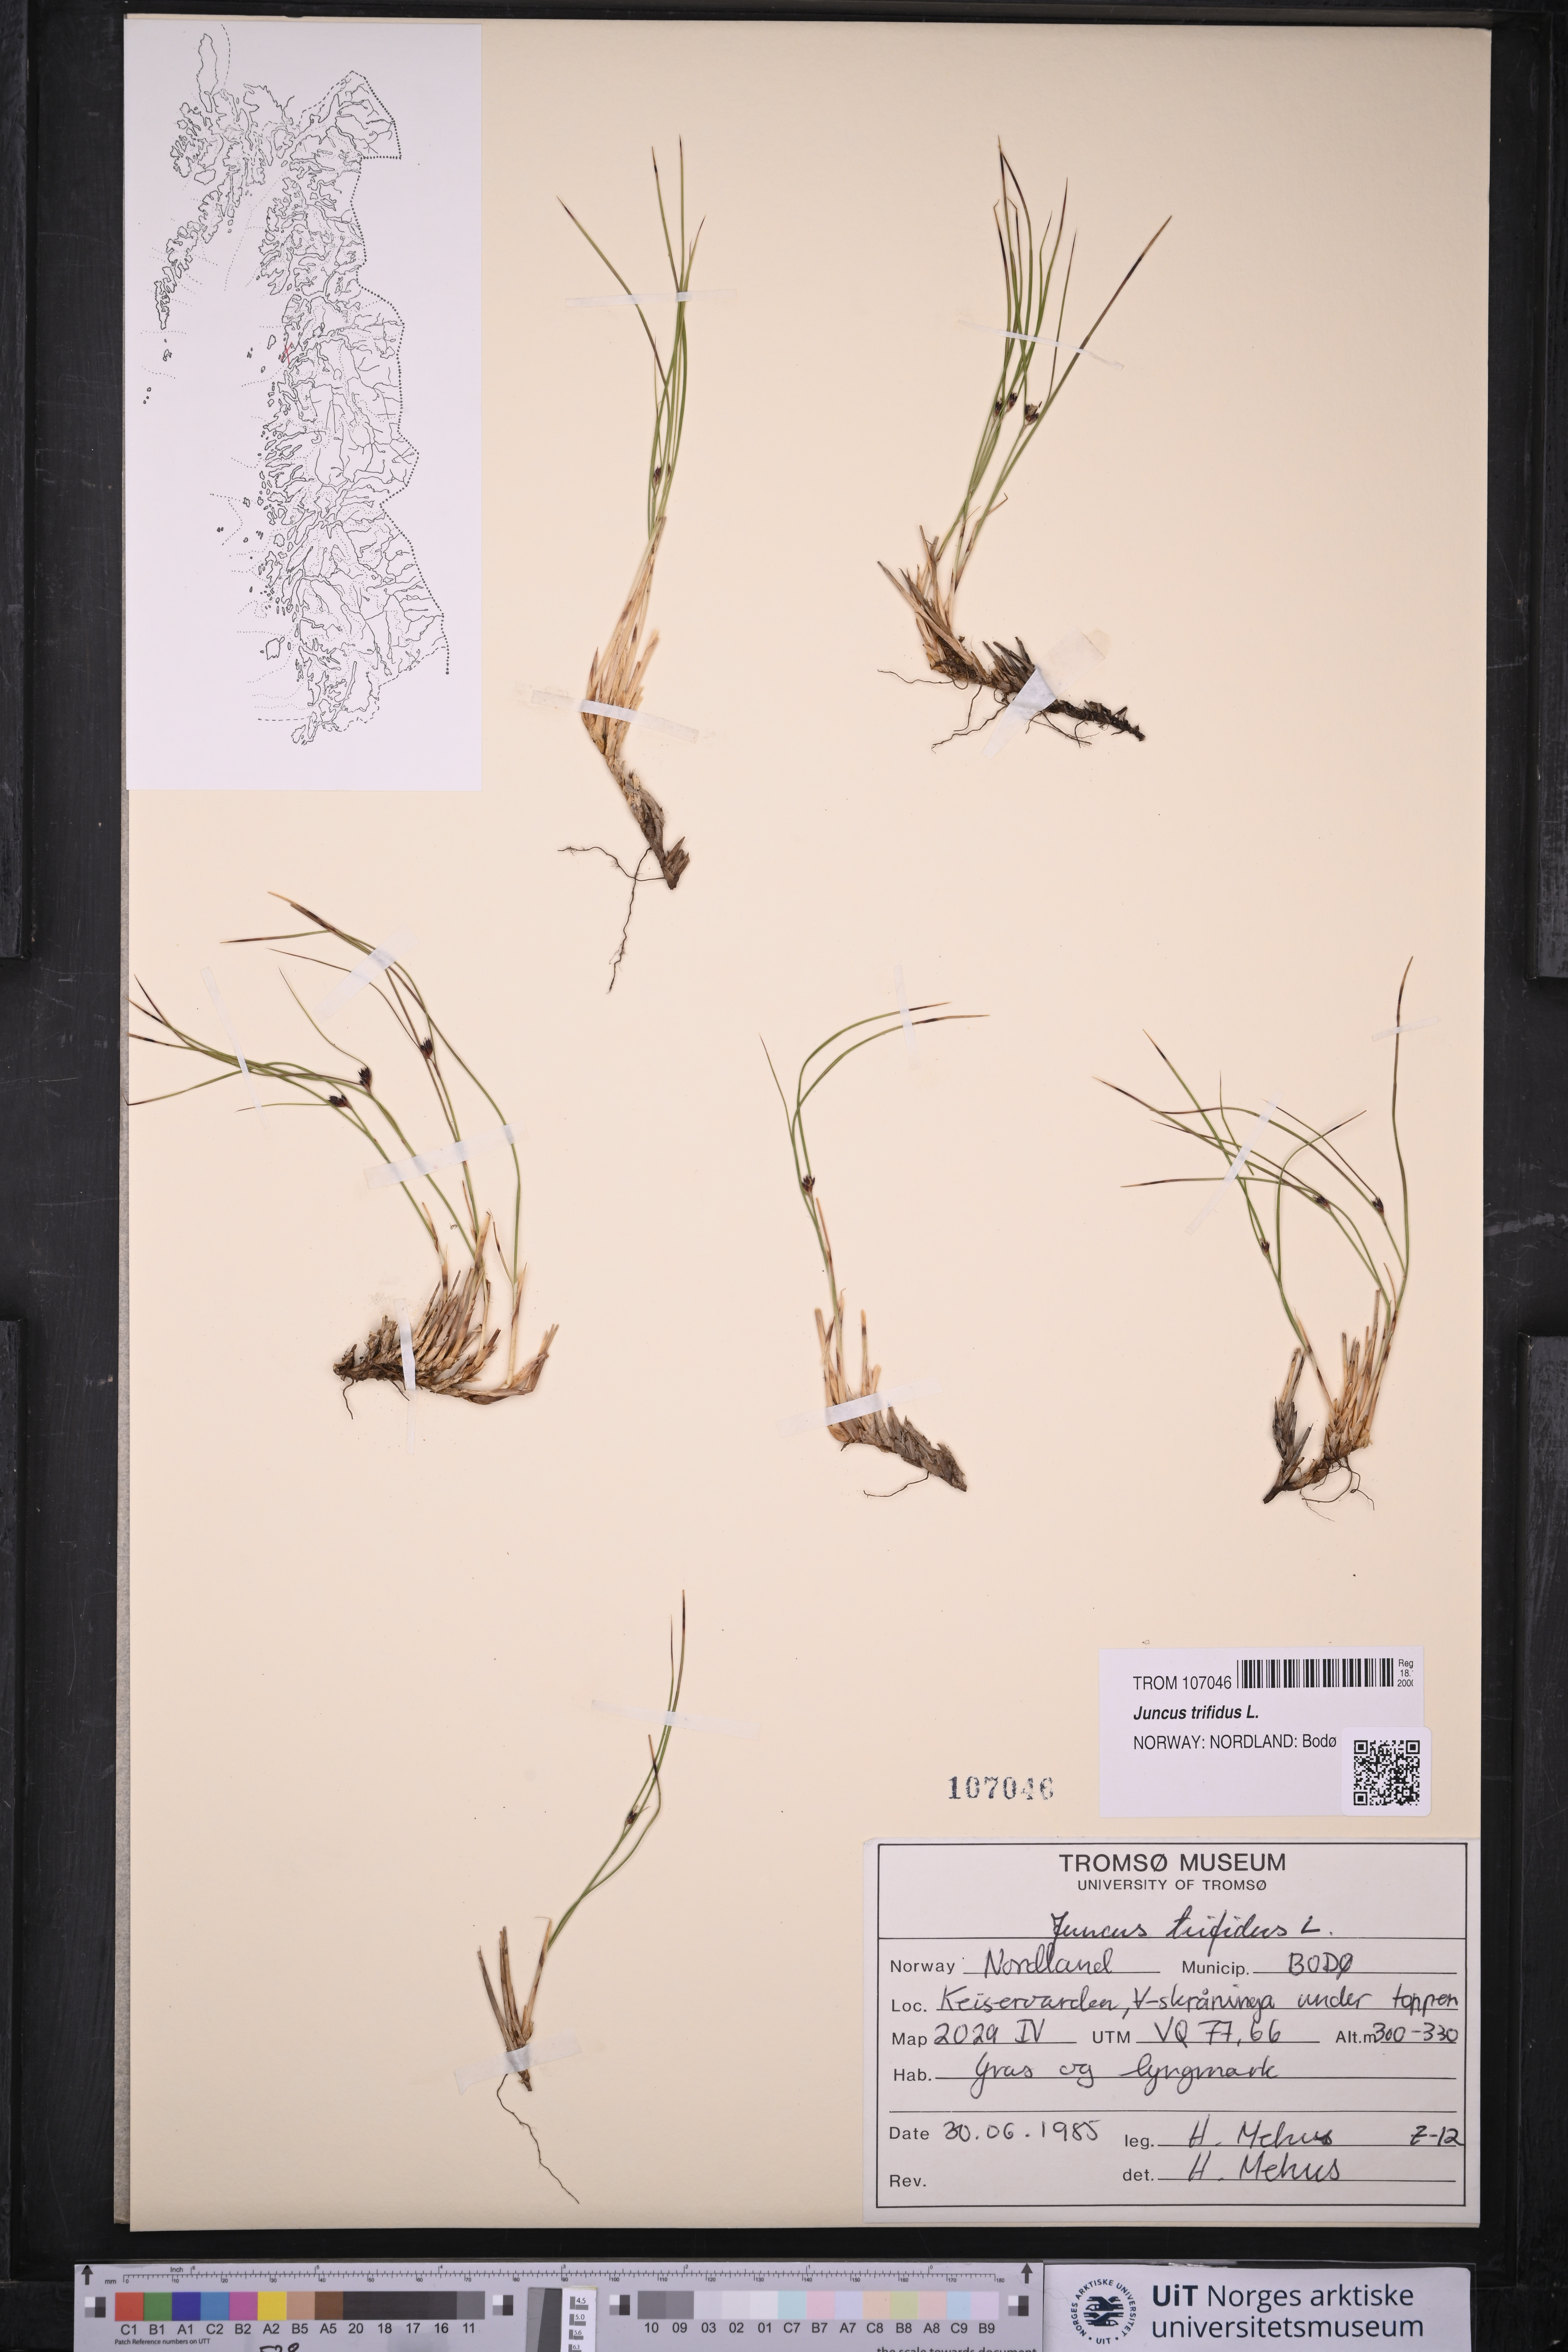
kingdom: Plantae
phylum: Tracheophyta
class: Liliopsida
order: Poales
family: Juncaceae
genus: Oreojuncus
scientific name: Oreojuncus trifidus
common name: Highland rush
